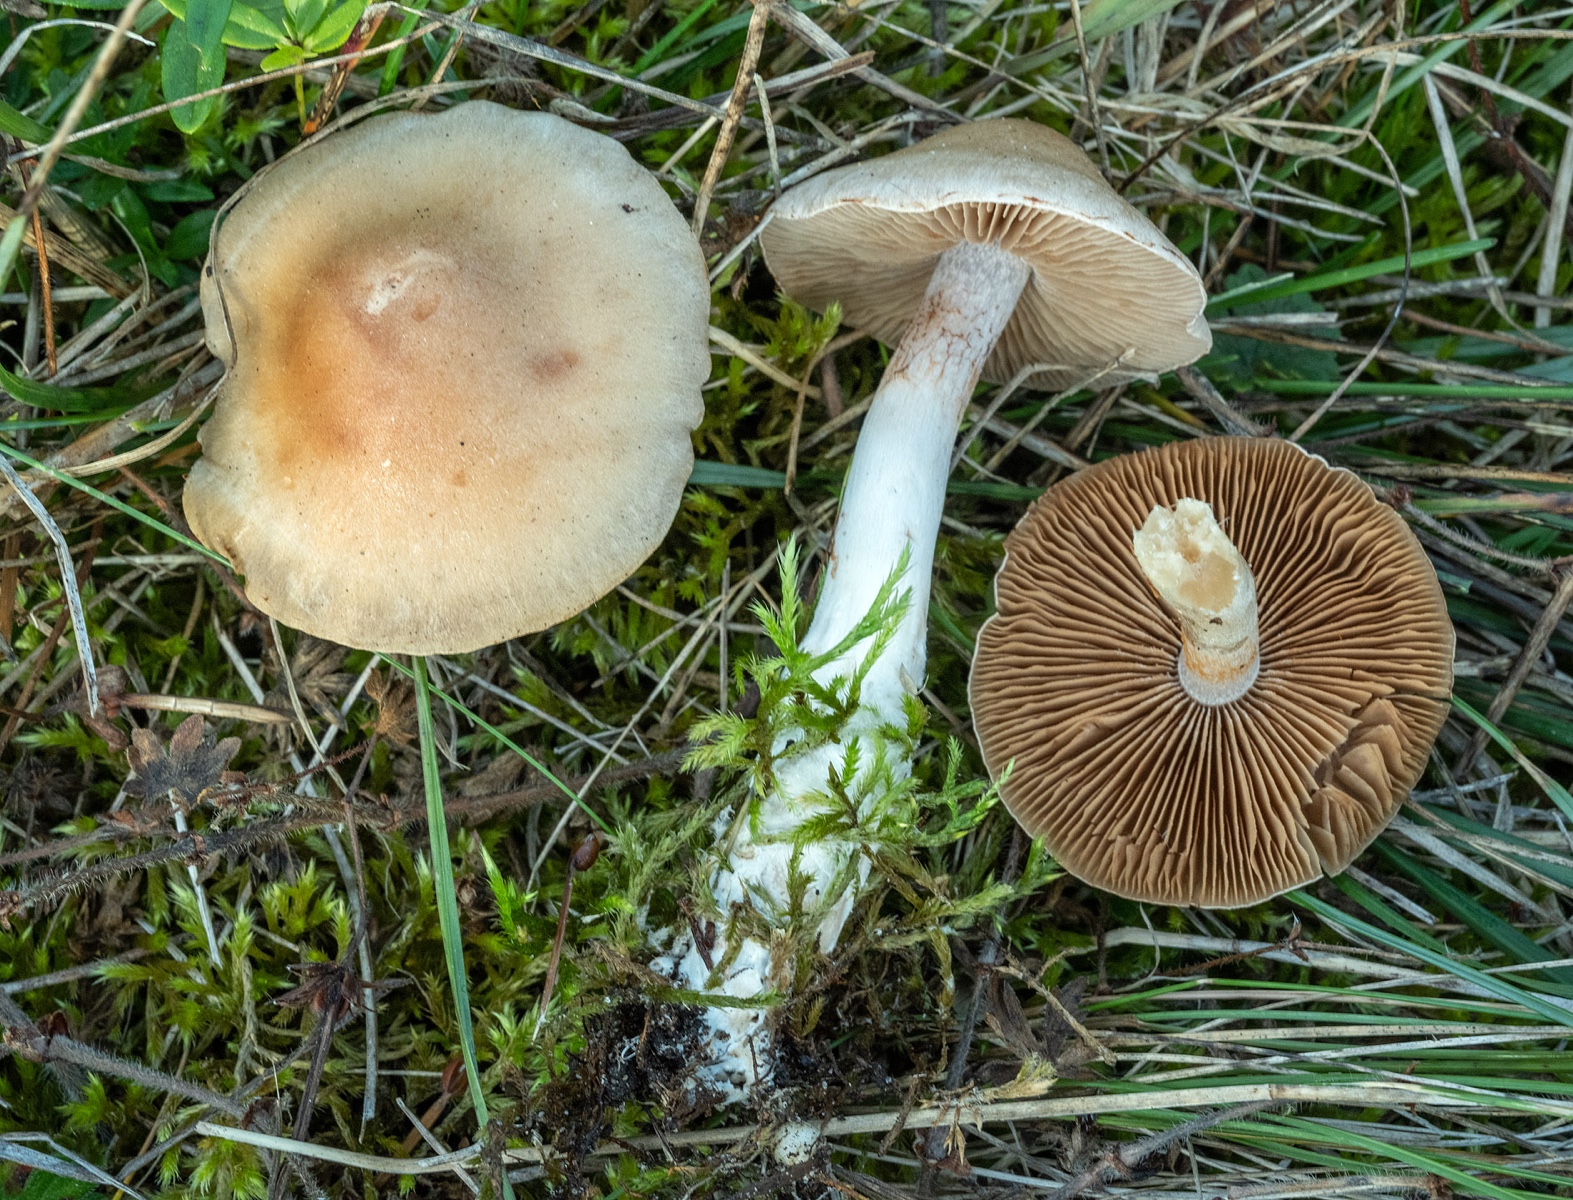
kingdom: Fungi
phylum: Basidiomycota
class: Agaricomycetes
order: Agaricales
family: Cortinariaceae
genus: Cortinarius
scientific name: Cortinarius anomalus
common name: Variable webcap
